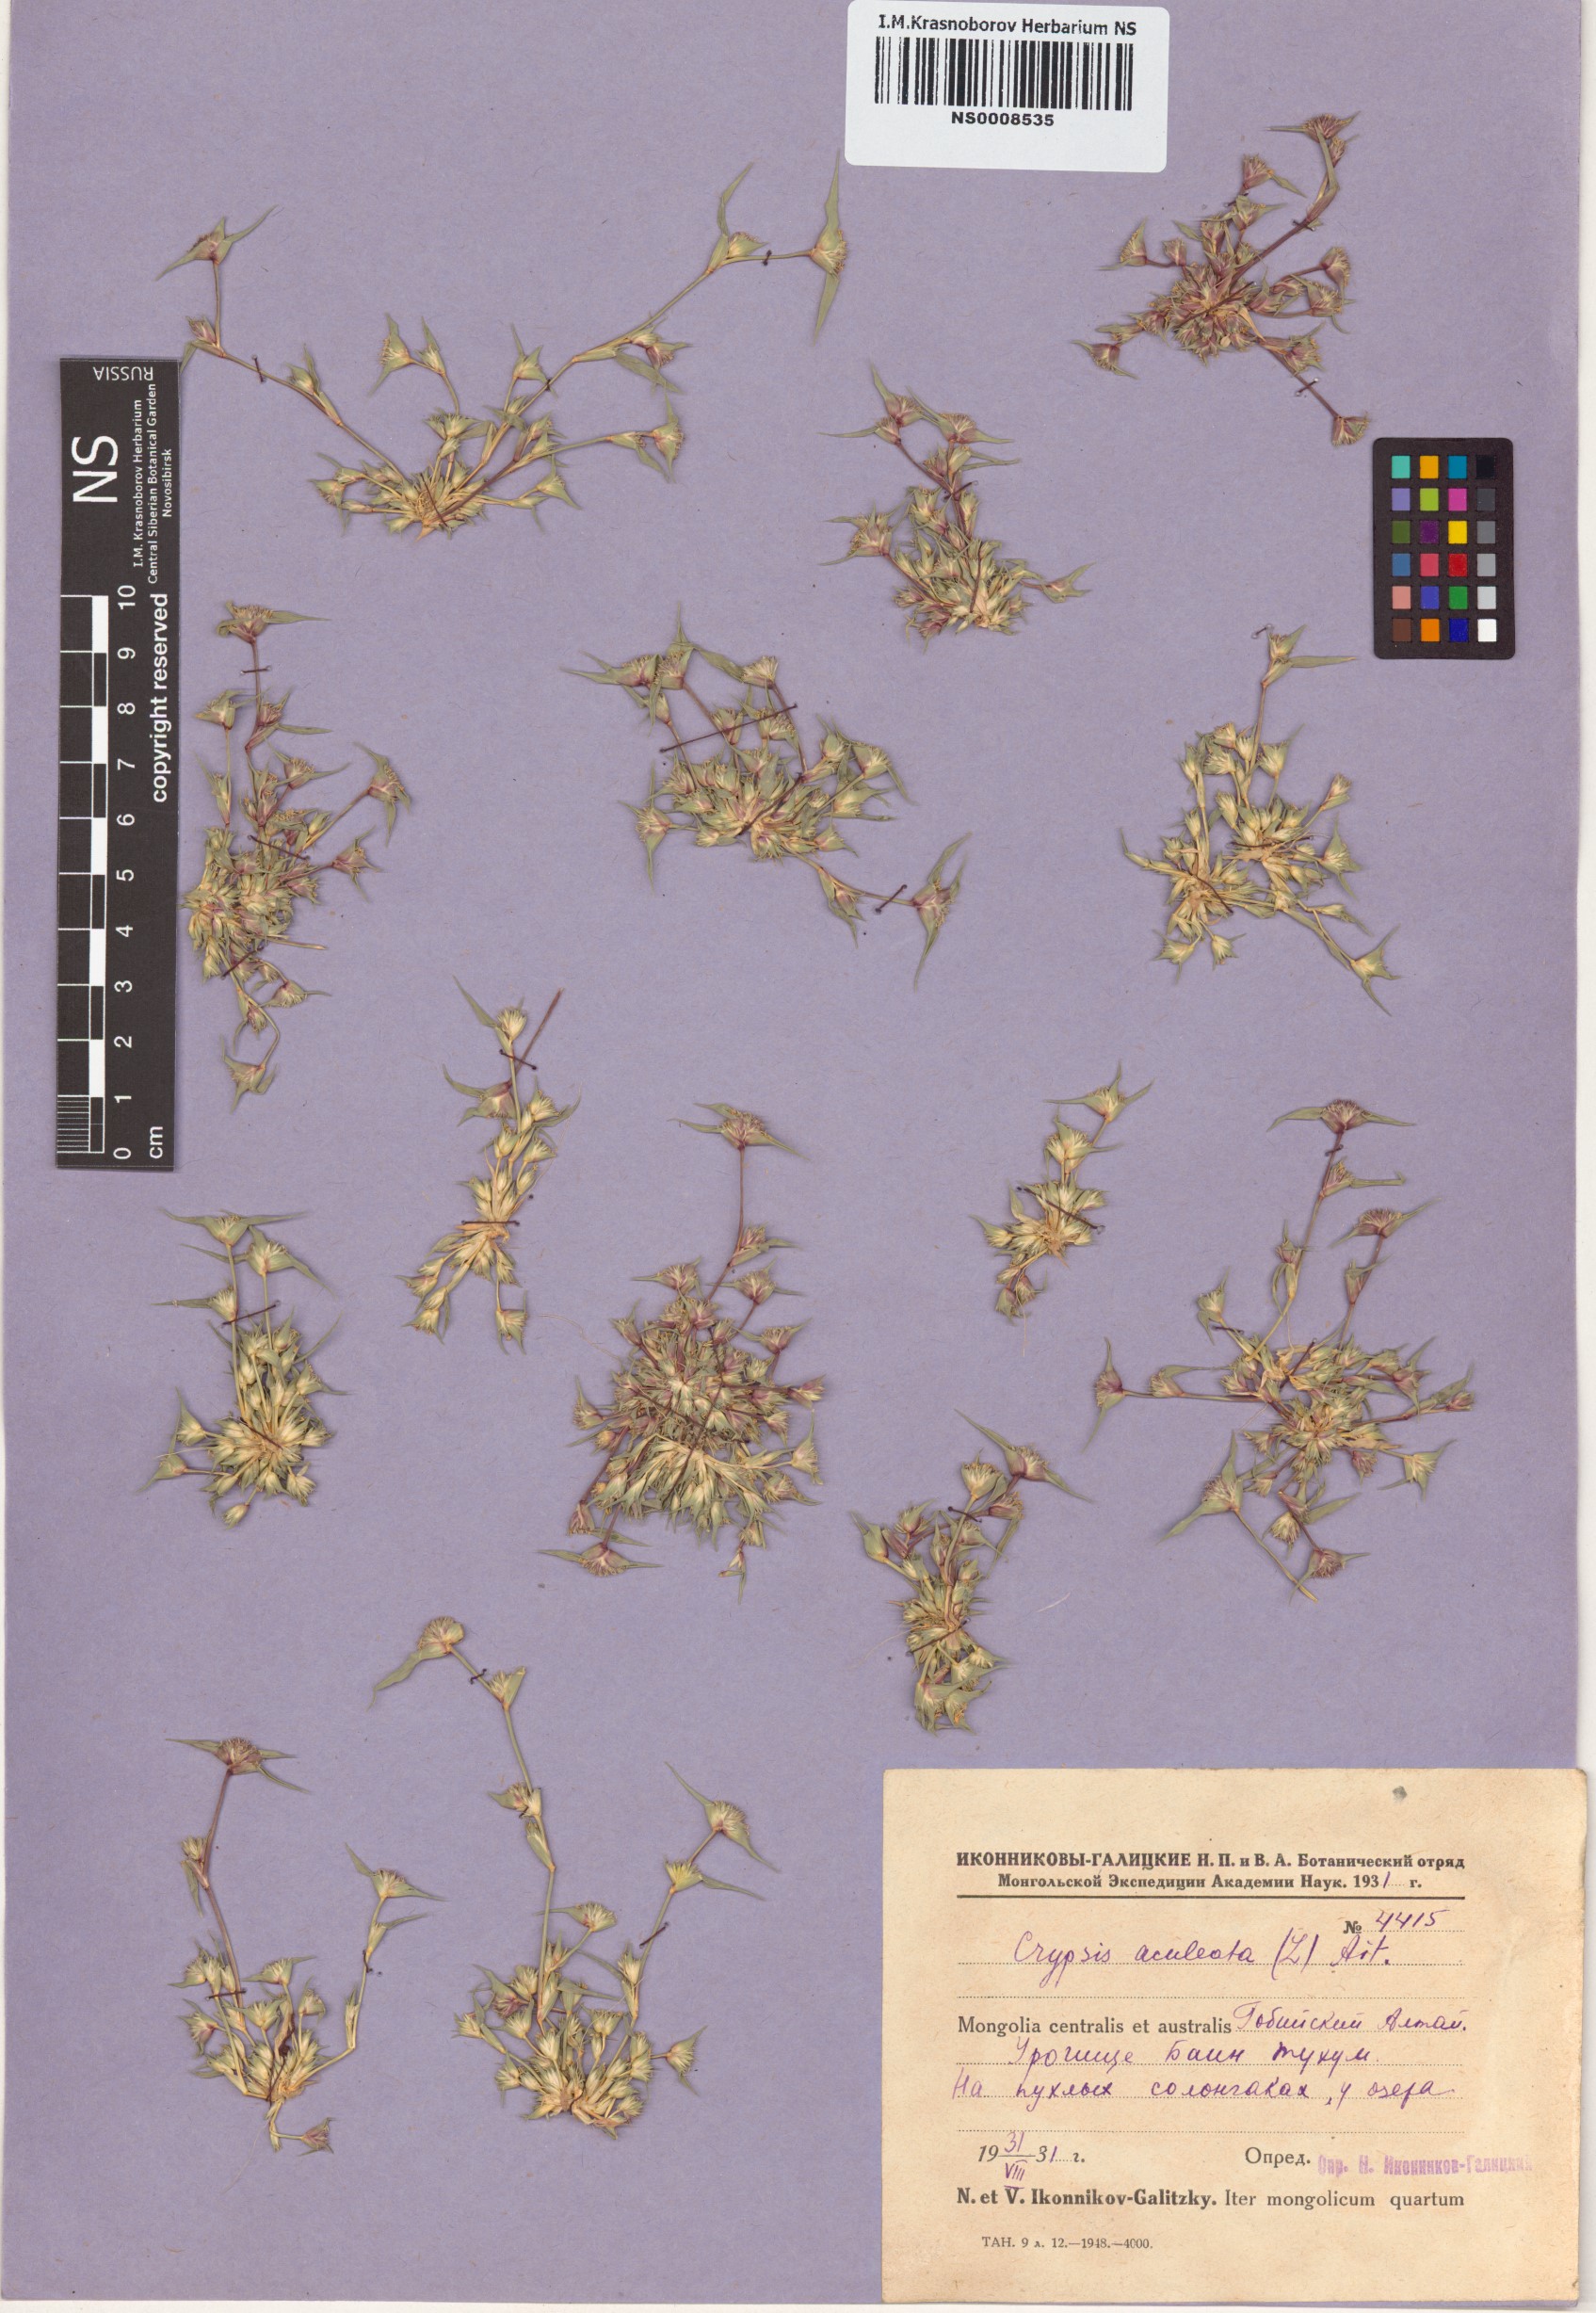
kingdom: Plantae
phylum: Tracheophyta
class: Liliopsida
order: Poales
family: Poaceae
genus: Sporobolus
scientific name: Sporobolus aculeatus
